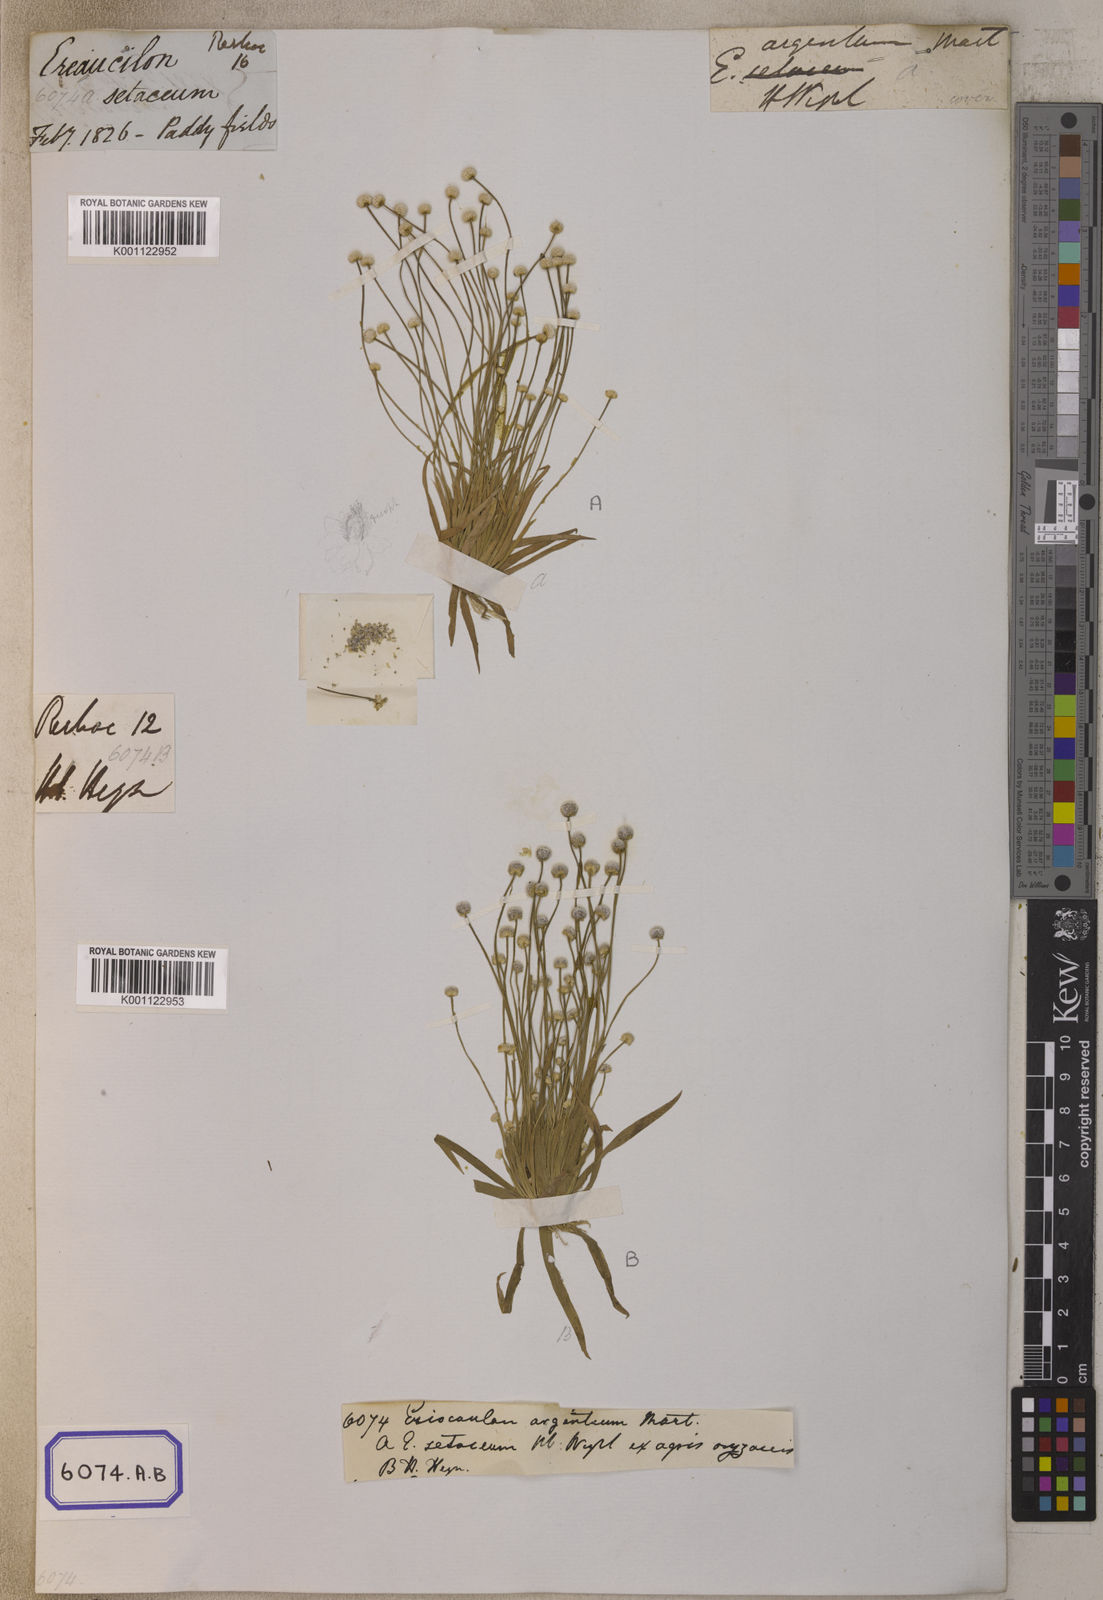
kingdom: Plantae
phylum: Tracheophyta
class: Liliopsida
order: Poales
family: Eriocaulaceae
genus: Eriocaulon
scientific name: Eriocaulon walkeri
